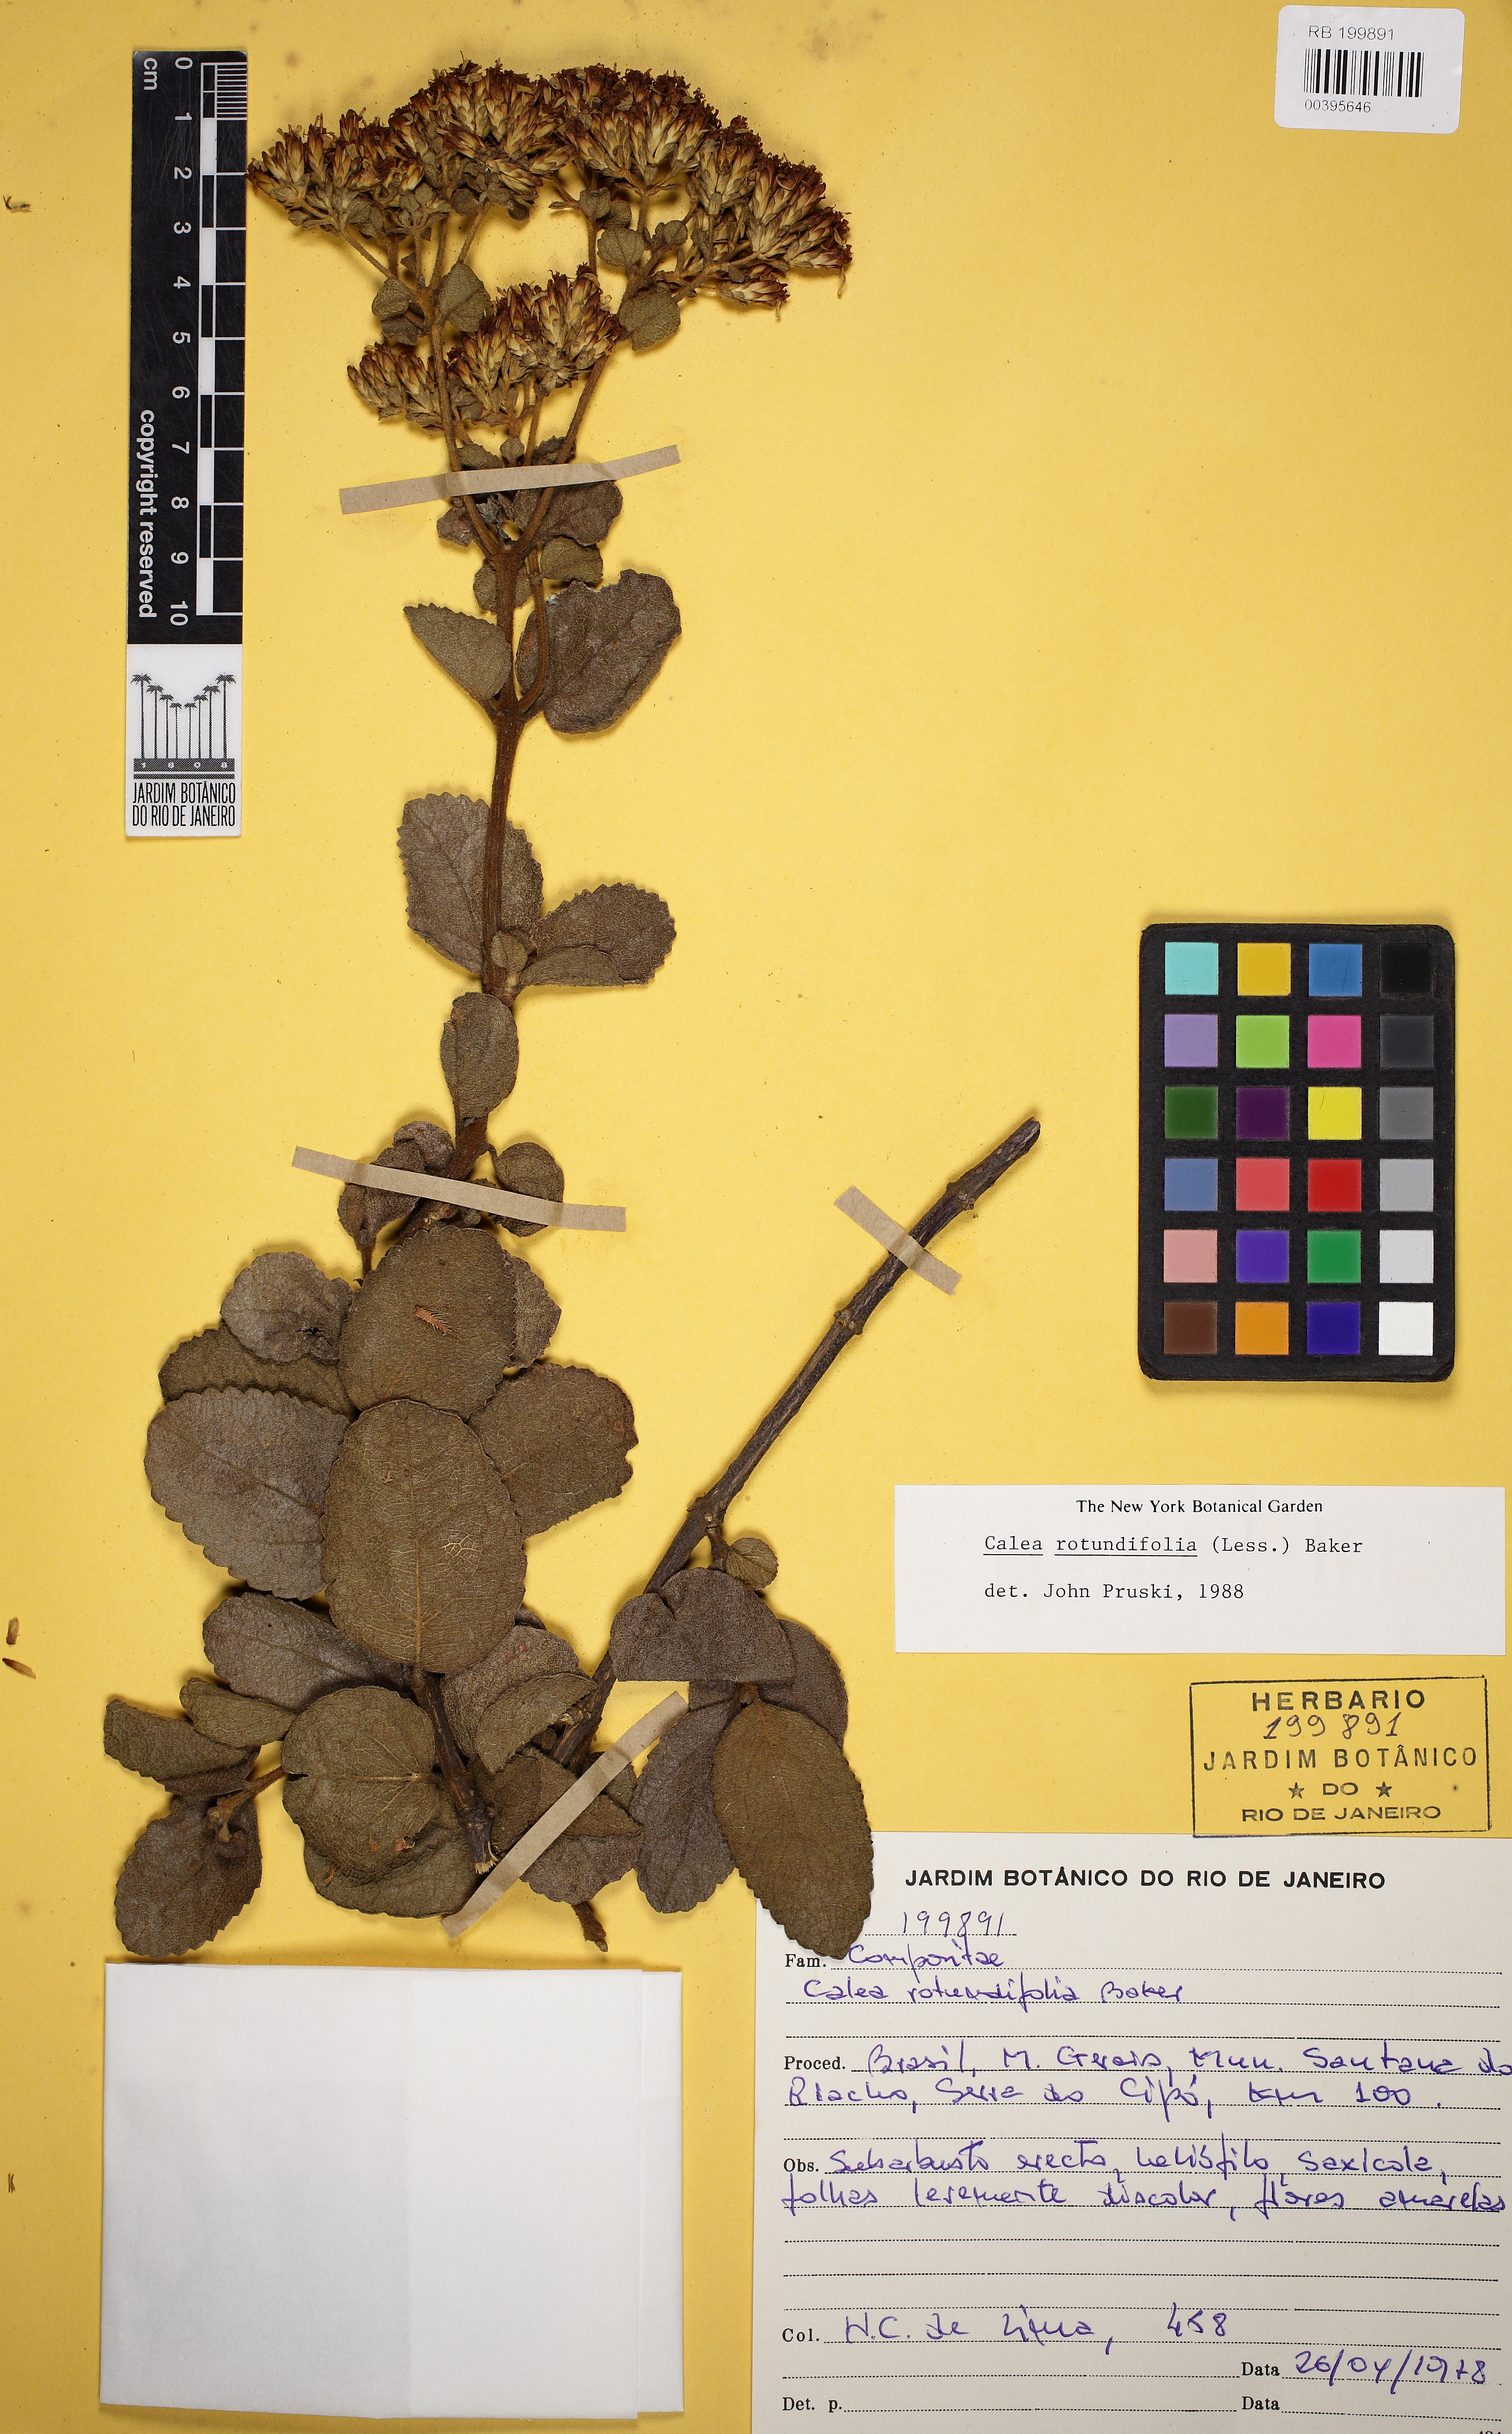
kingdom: Plantae
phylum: Tracheophyta
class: Magnoliopsida
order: Asterales
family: Asteraceae
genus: Calea
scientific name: Calea rotundifolia
